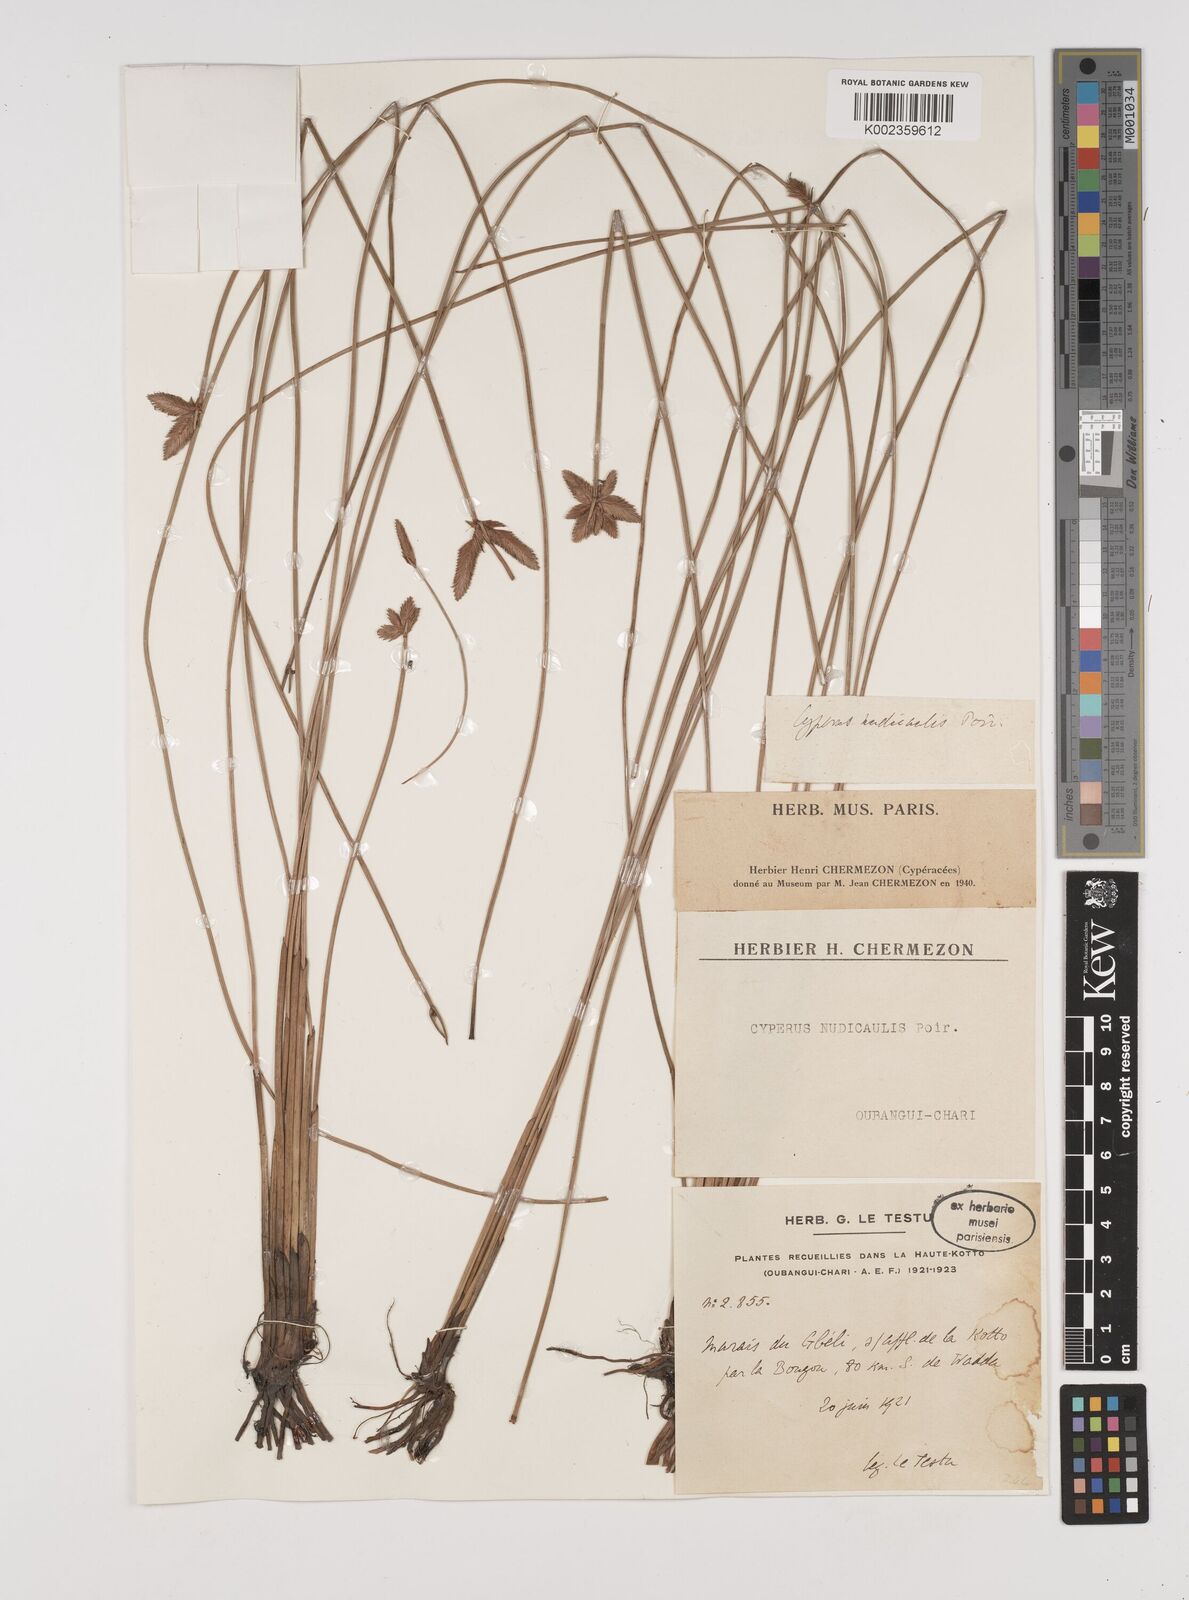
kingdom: Plantae
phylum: Tracheophyta
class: Liliopsida
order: Poales
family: Cyperaceae
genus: Cyperus
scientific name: Cyperus pectinatus
